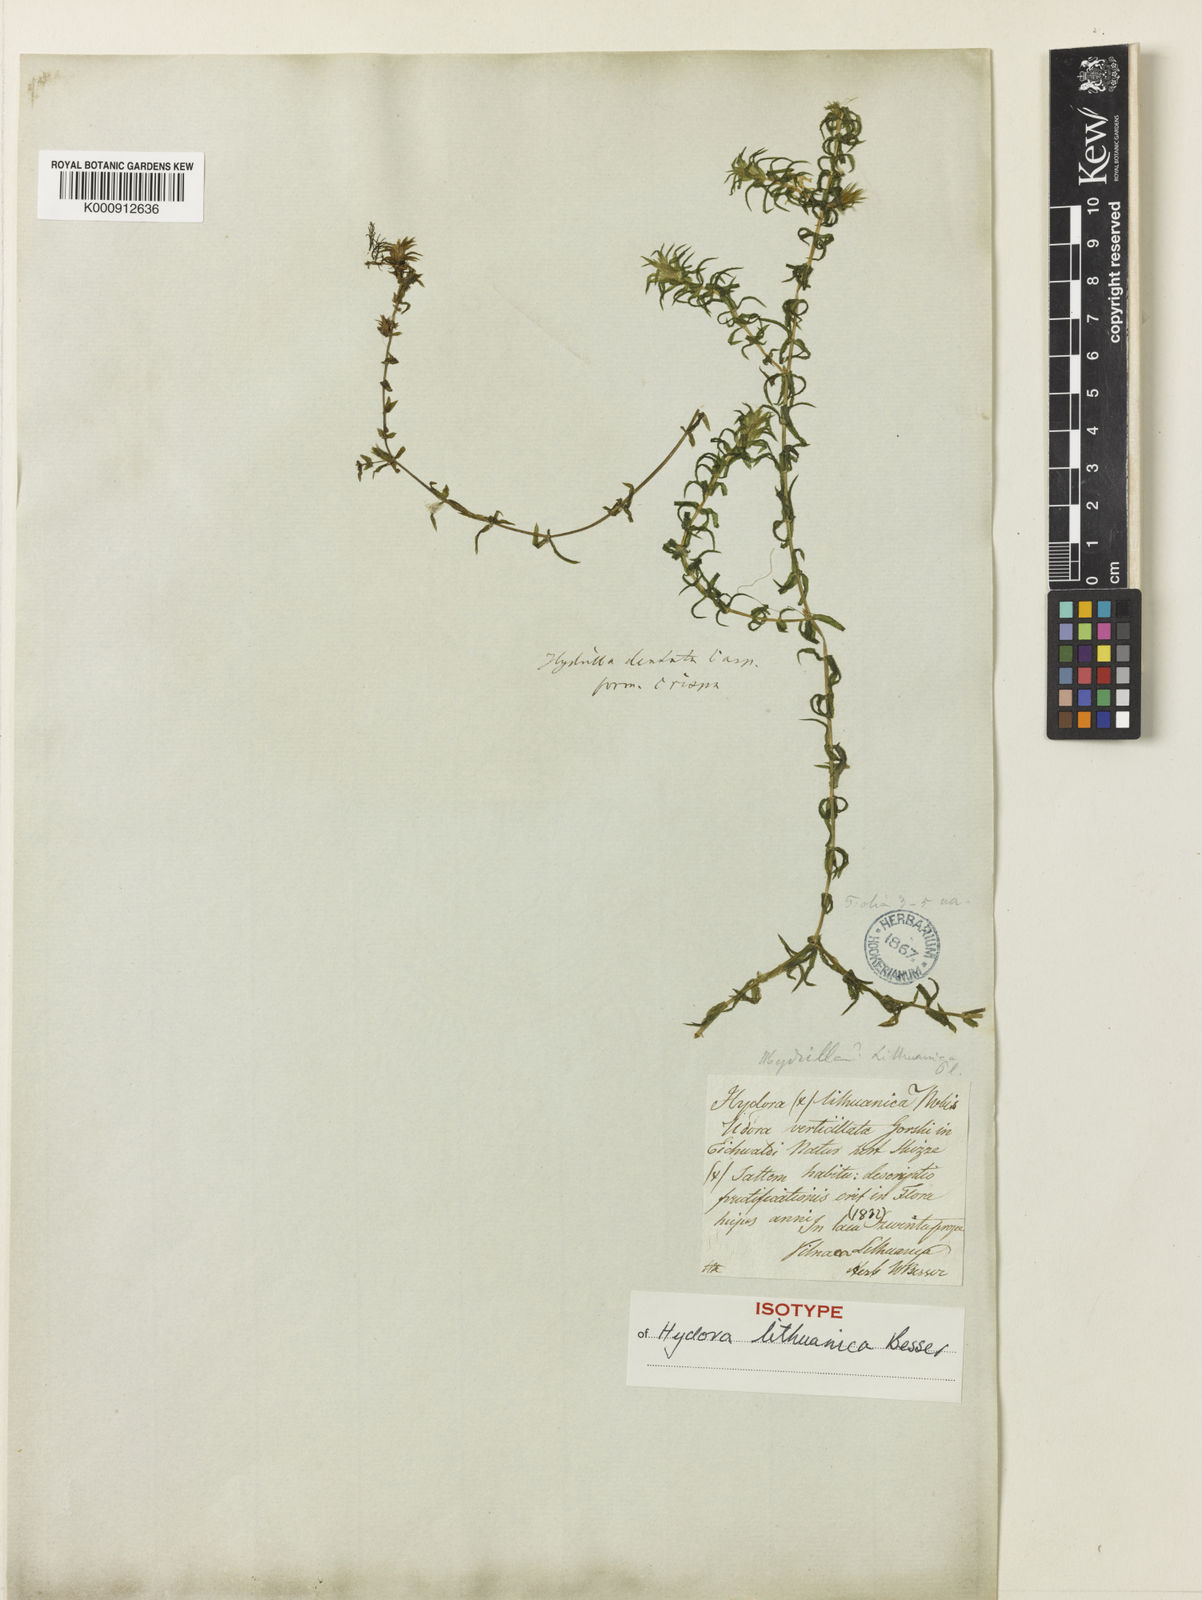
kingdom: Plantae
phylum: Tracheophyta
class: Liliopsida
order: Alismatales
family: Hydrocharitaceae
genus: Hydrilla
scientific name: Hydrilla verticillata
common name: Florida-elodea
